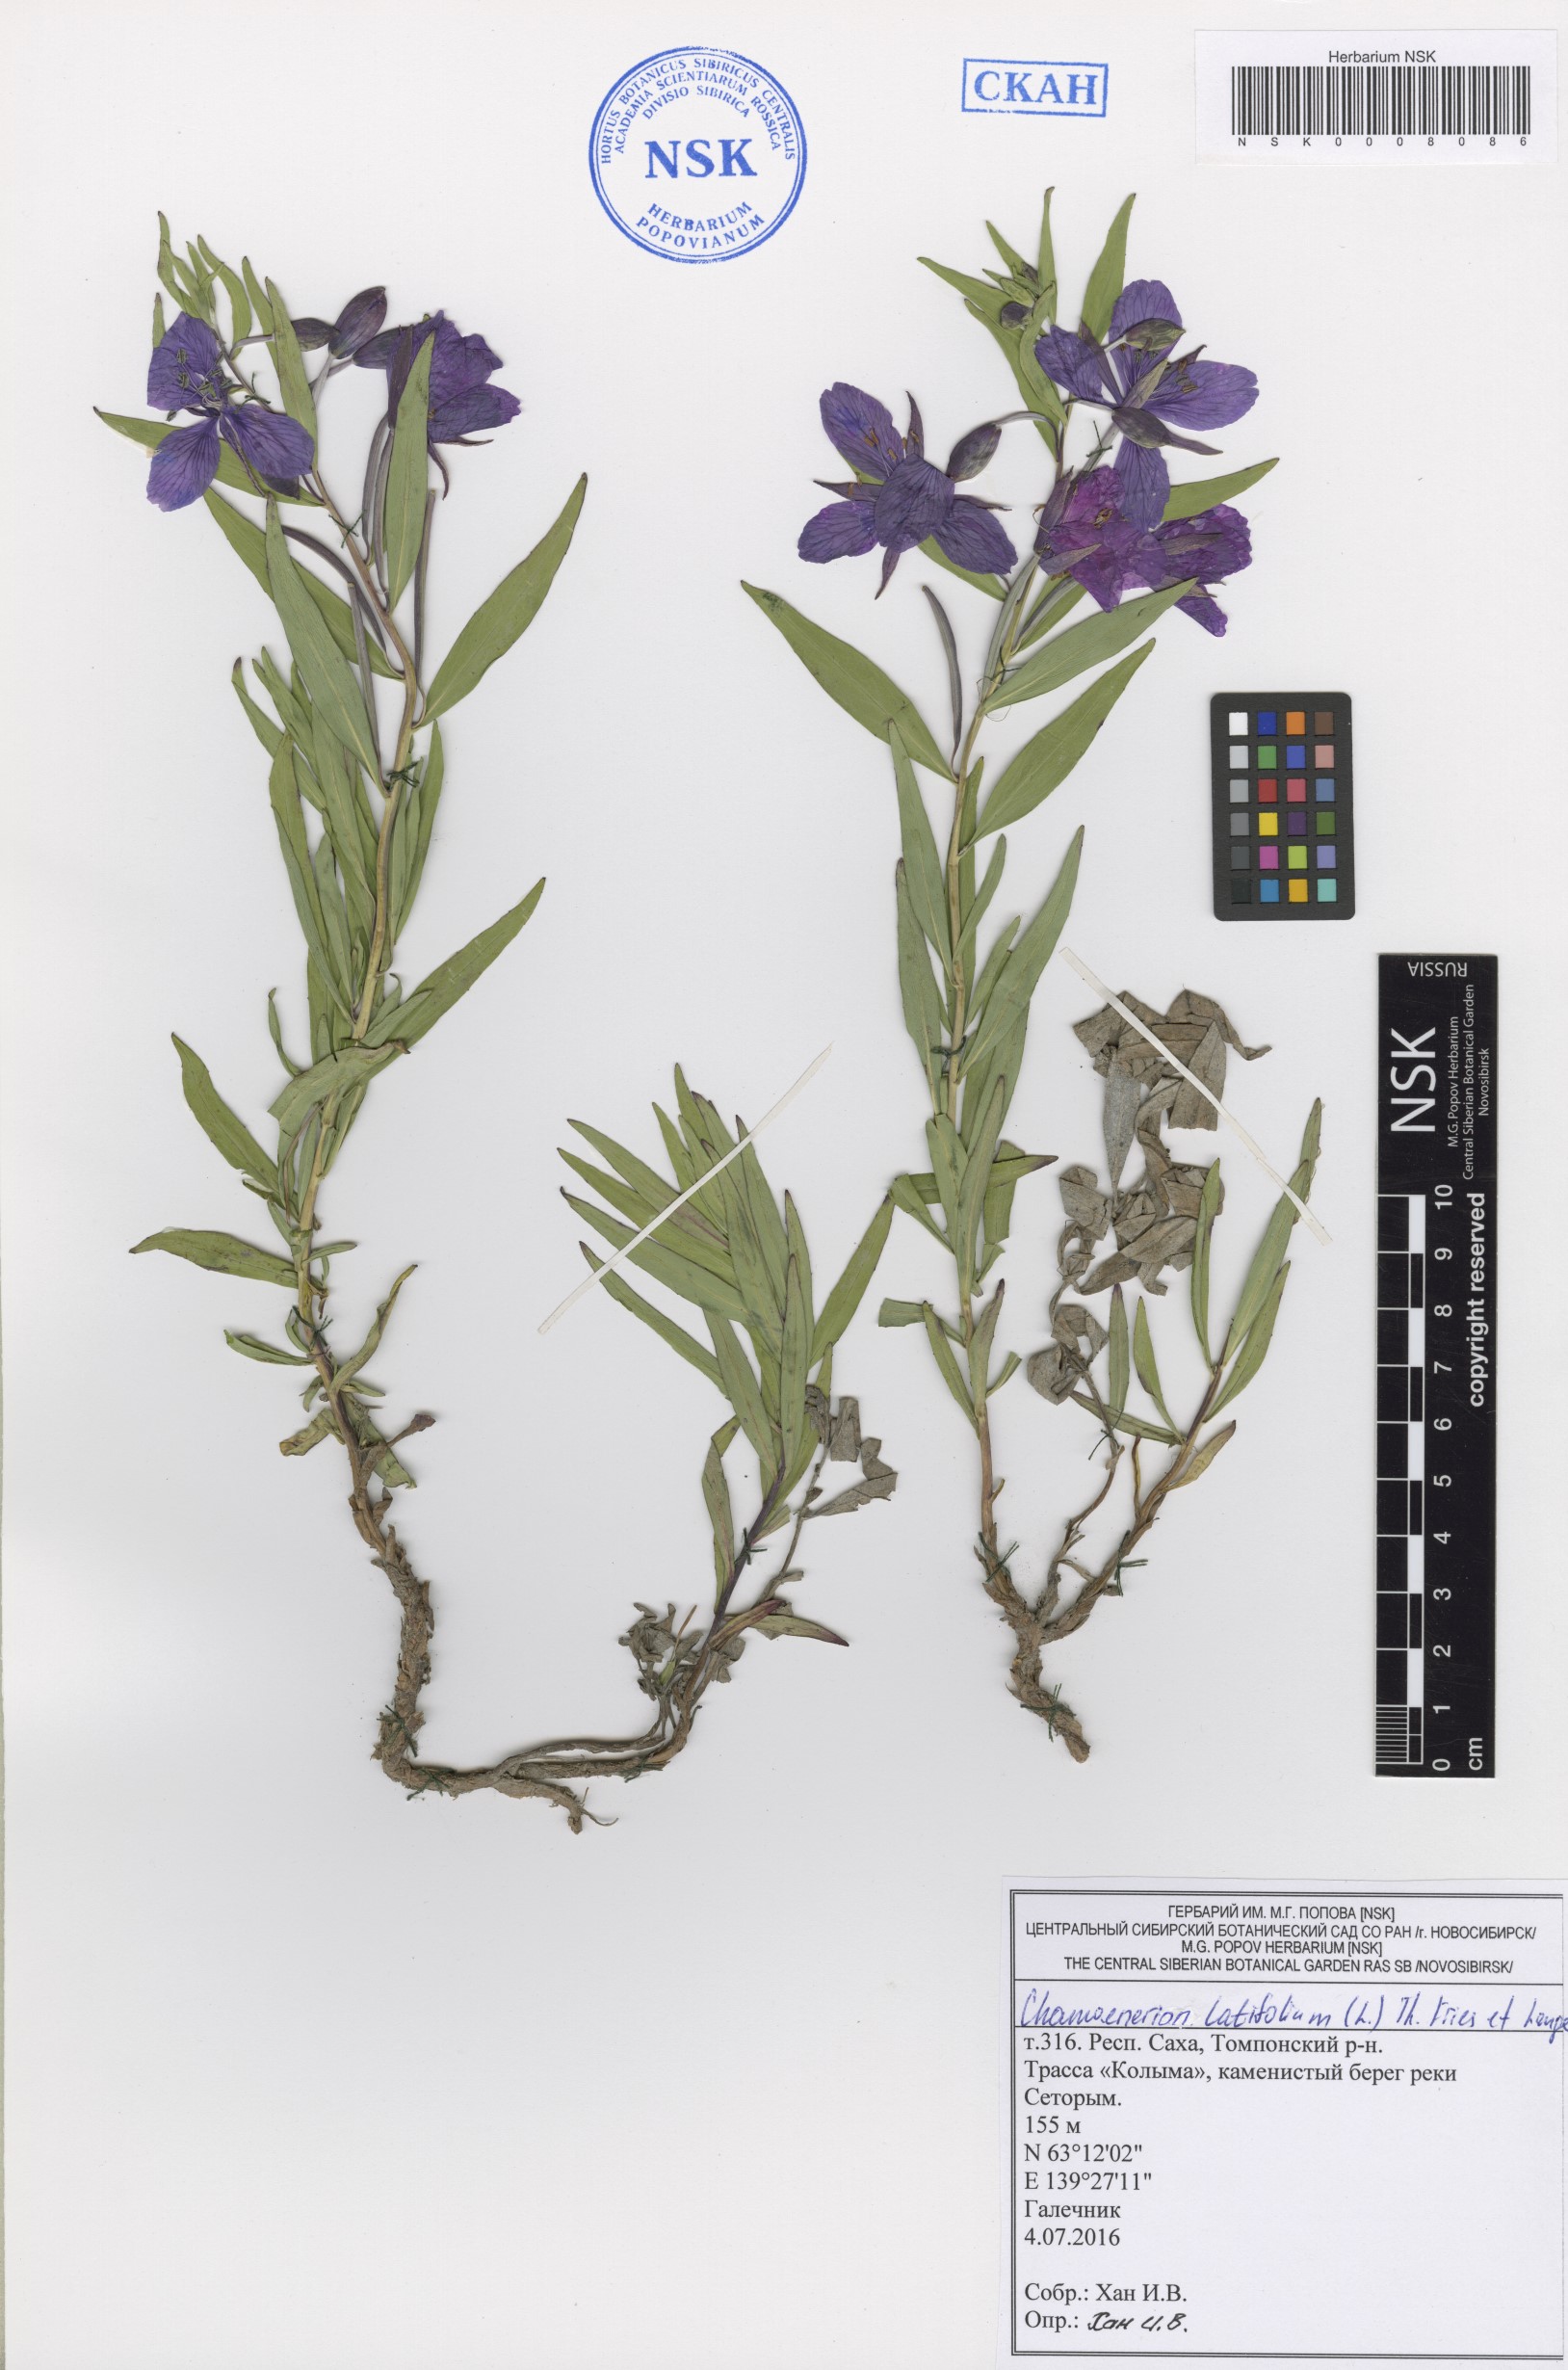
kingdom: Plantae
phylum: Tracheophyta
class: Magnoliopsida
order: Myrtales
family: Onagraceae
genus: Chamaenerion
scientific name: Chamaenerion latifolium
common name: Dwarf fireweed
